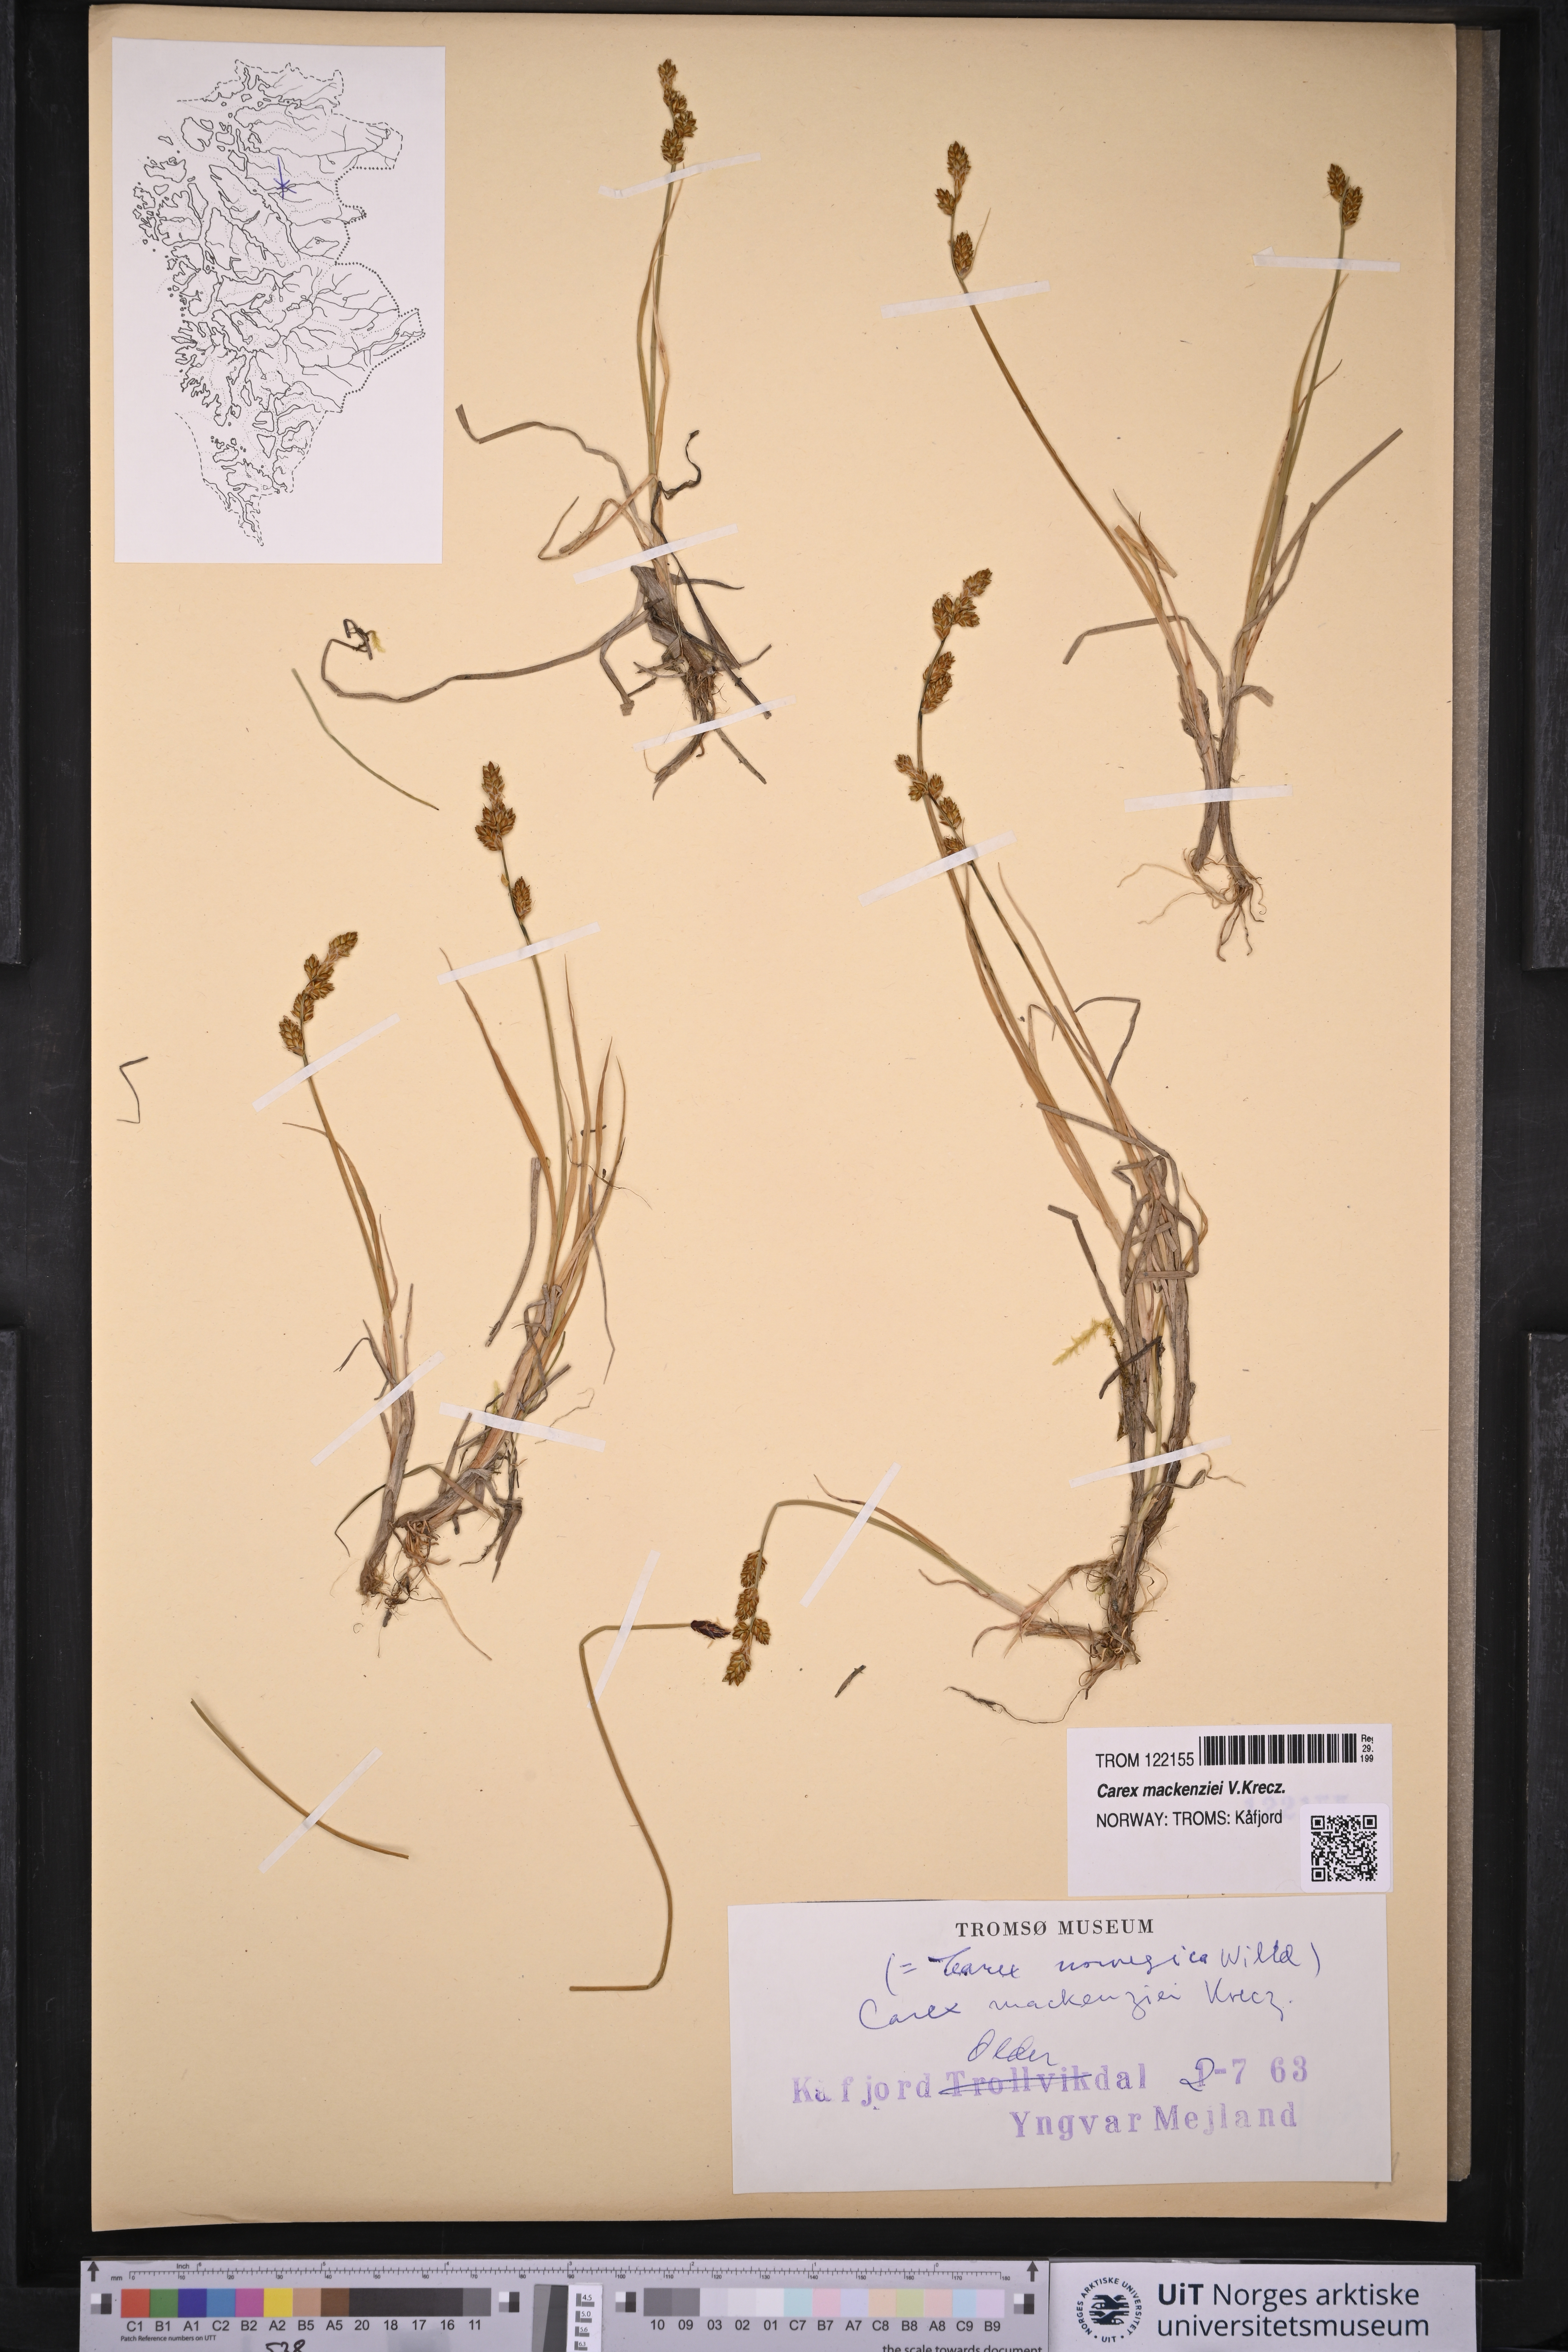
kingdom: Plantae
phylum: Tracheophyta
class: Liliopsida
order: Poales
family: Cyperaceae
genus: Carex
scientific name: Carex mackenziei
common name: Mackenzie's sedge
